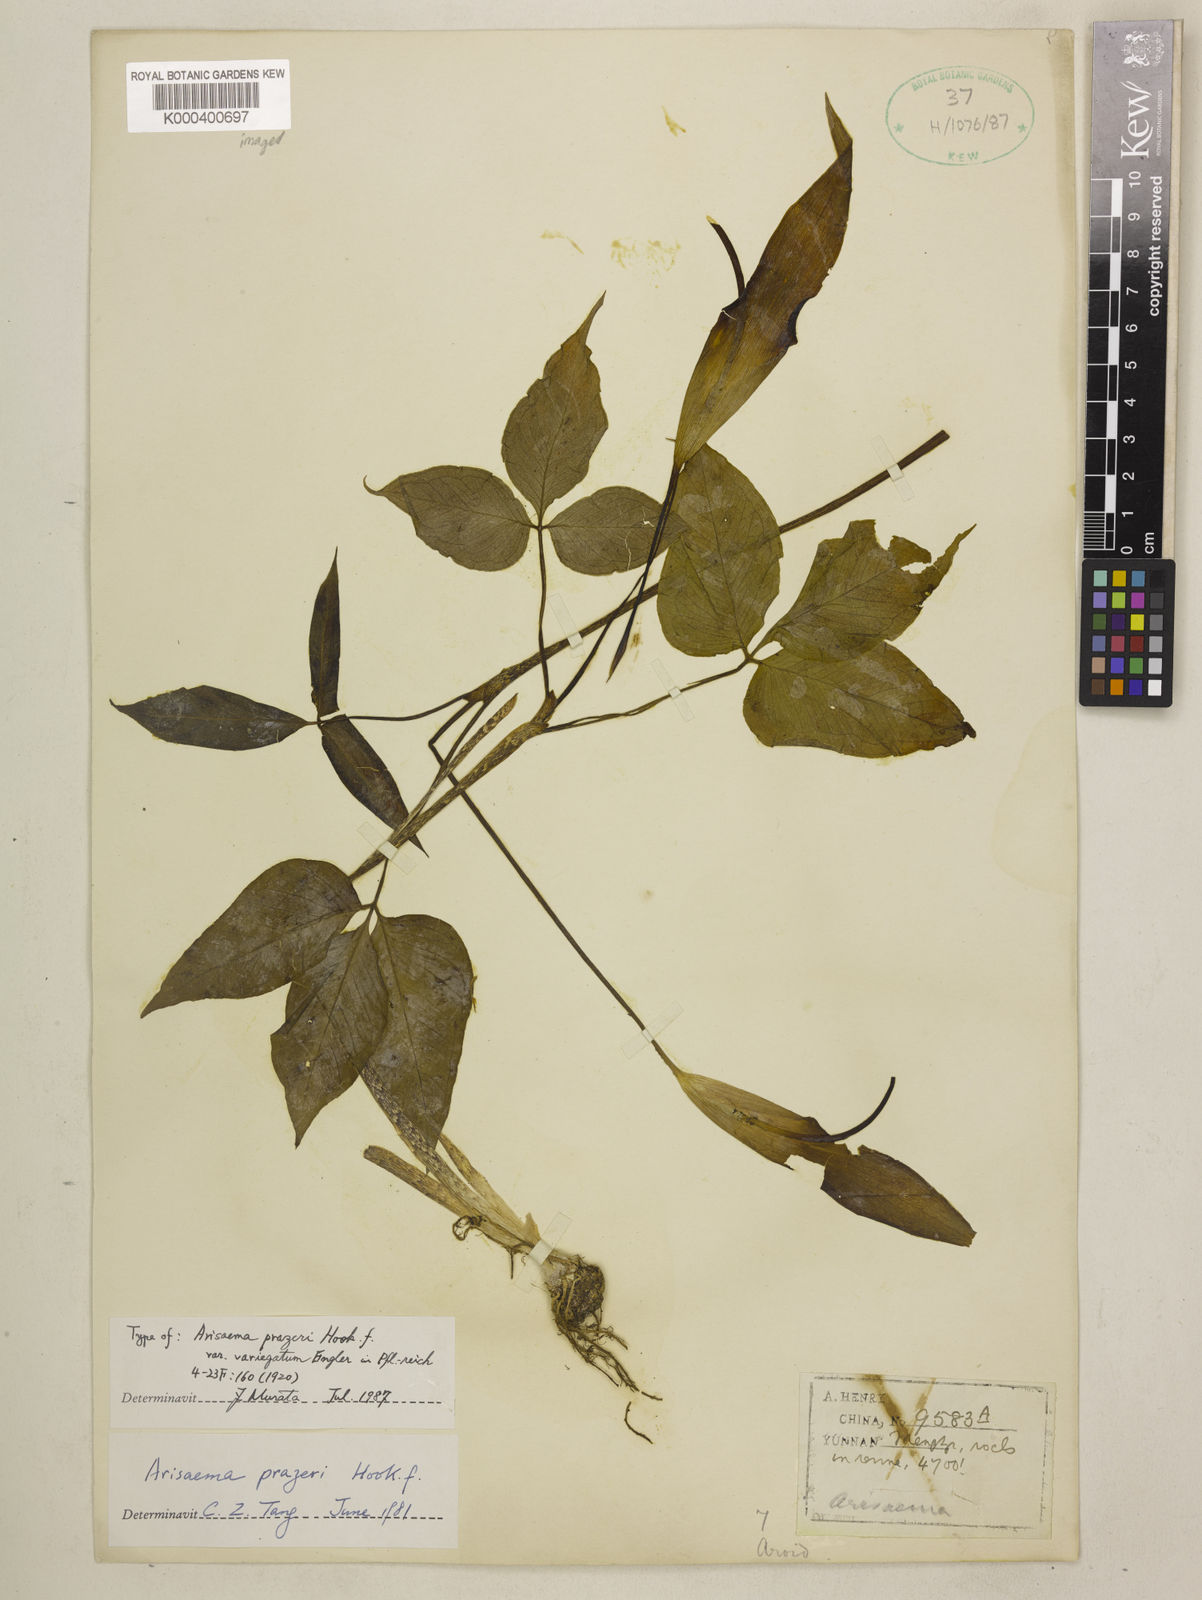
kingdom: Plantae
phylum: Tracheophyta
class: Liliopsida
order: Alismatales
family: Araceae
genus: Arisaema
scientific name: Arisaema prazeri
